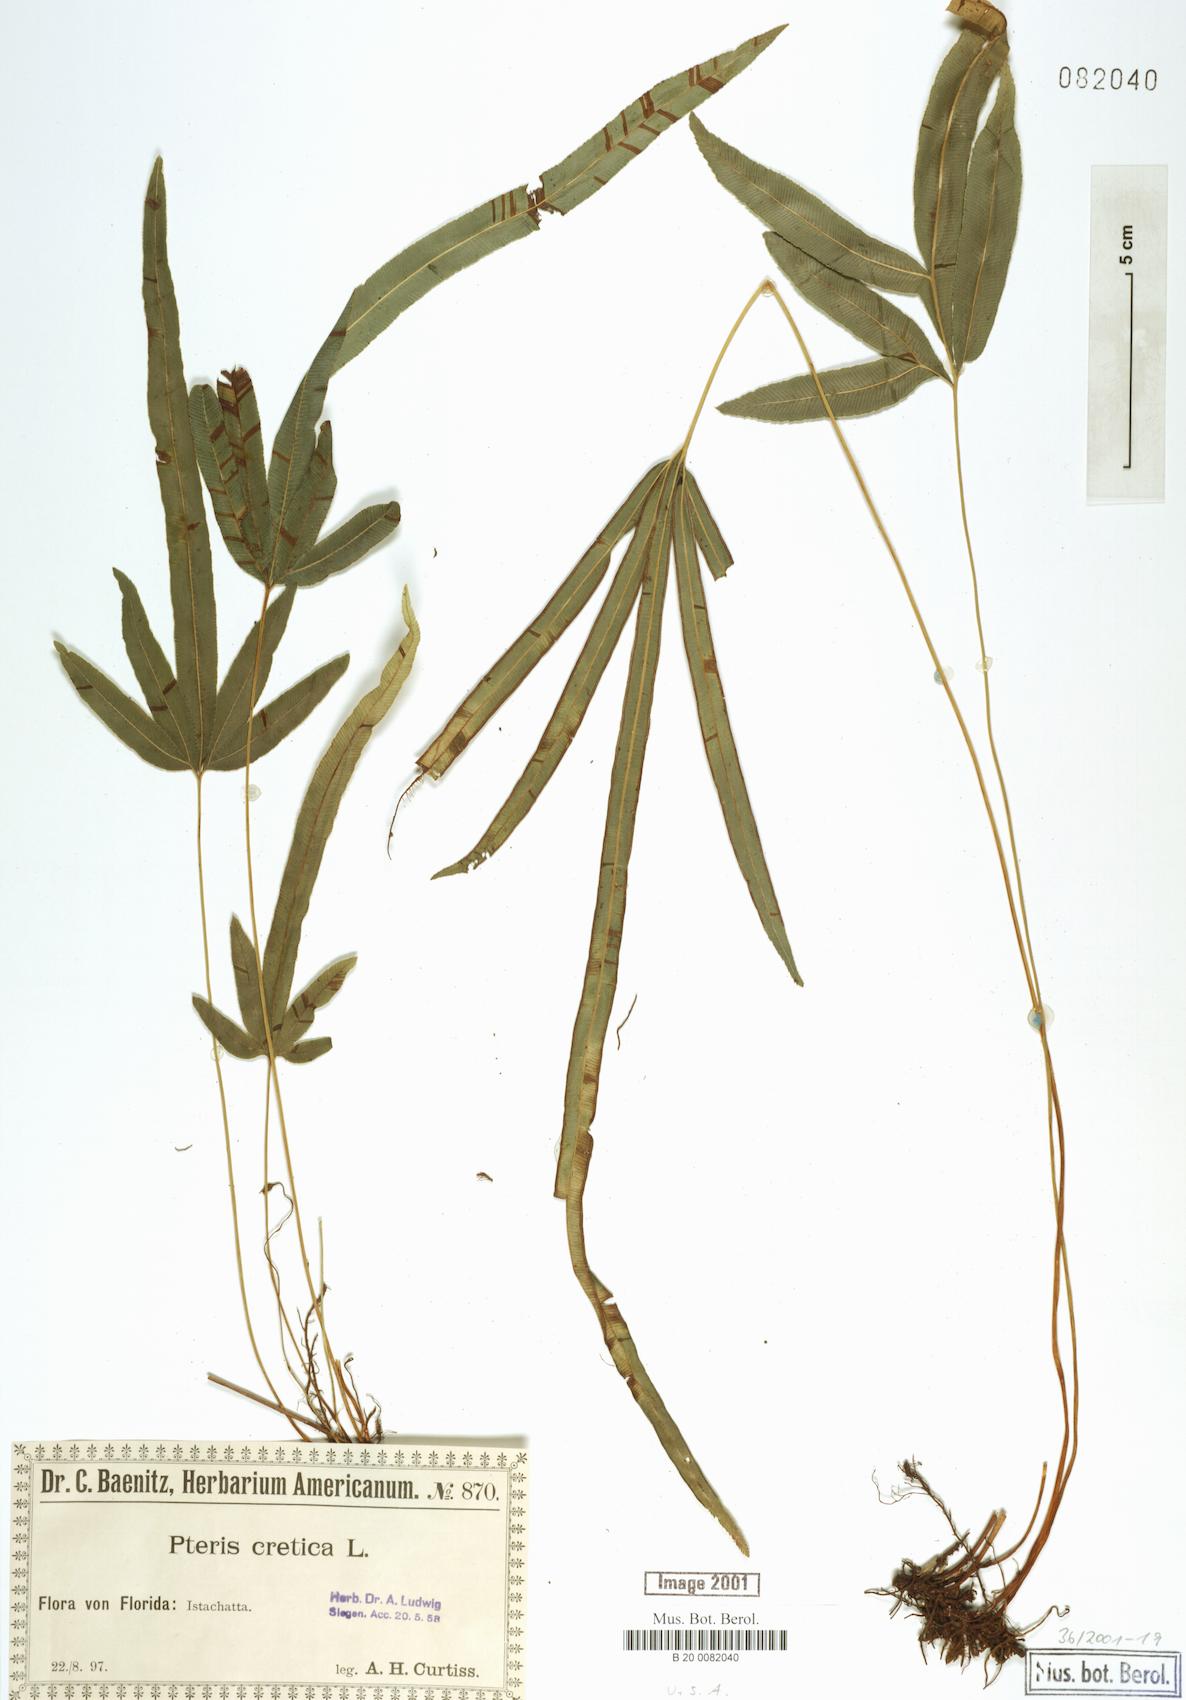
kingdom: Plantae
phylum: Tracheophyta
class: Polypodiopsida
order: Polypodiales
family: Pteridaceae
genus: Pteris
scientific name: Pteris cretica
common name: Ribbon fern
